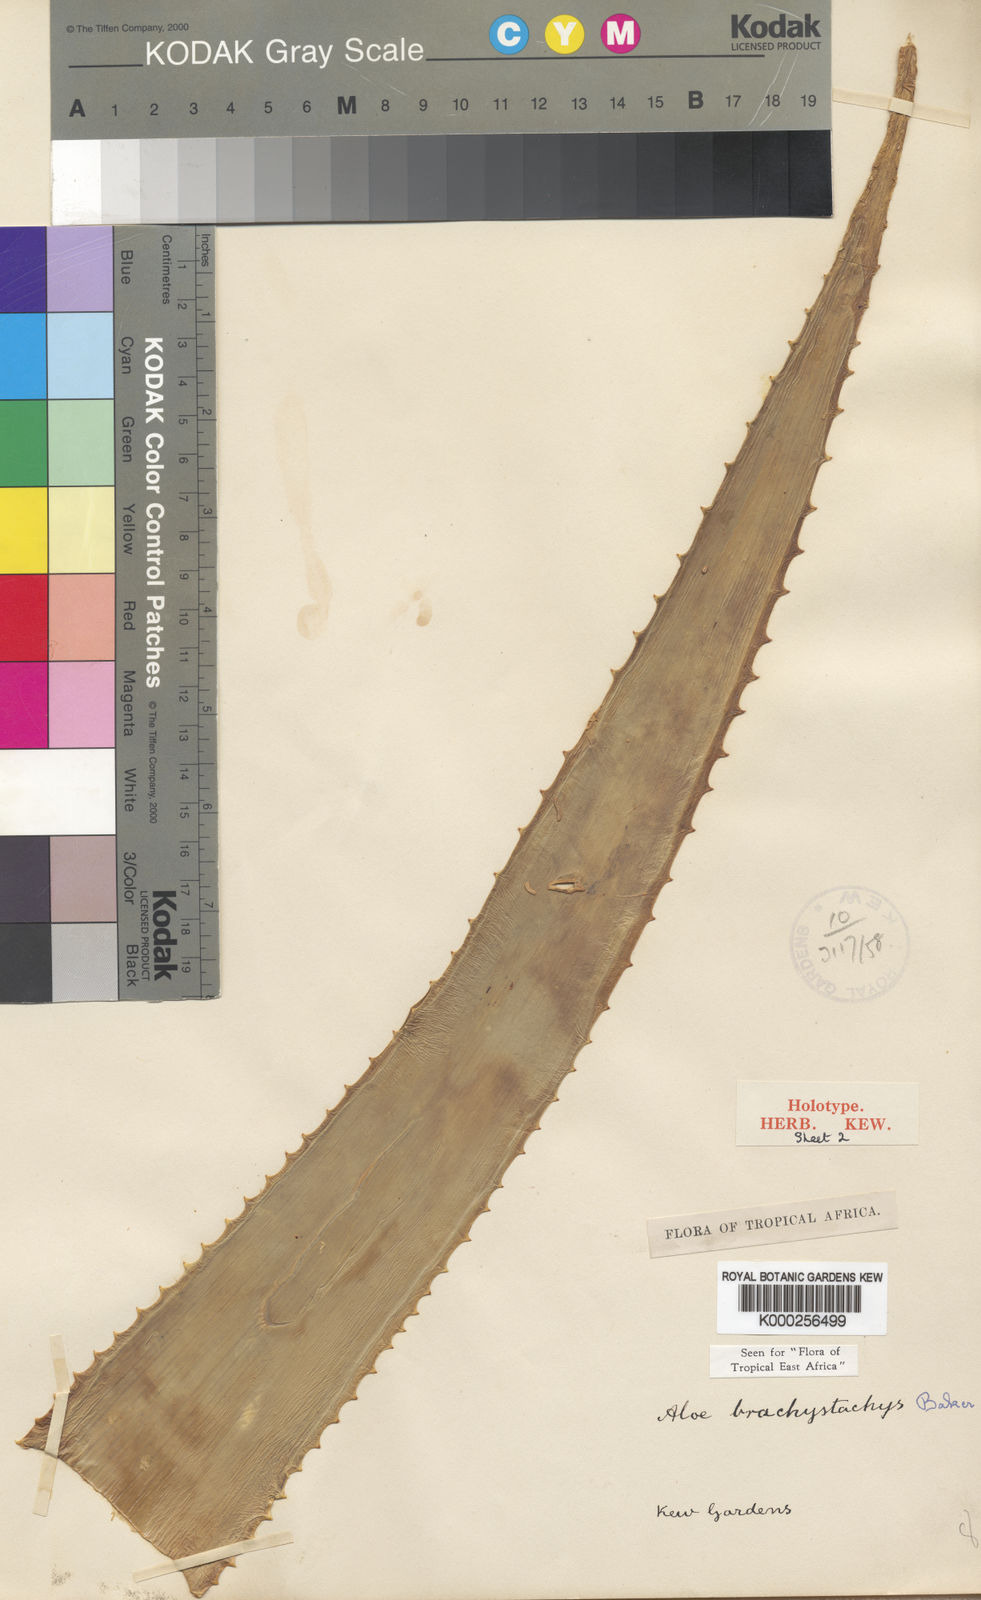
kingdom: Plantae
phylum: Tracheophyta
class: Liliopsida
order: Asparagales
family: Asphodelaceae
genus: Aloe
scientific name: Aloe brachystachys
